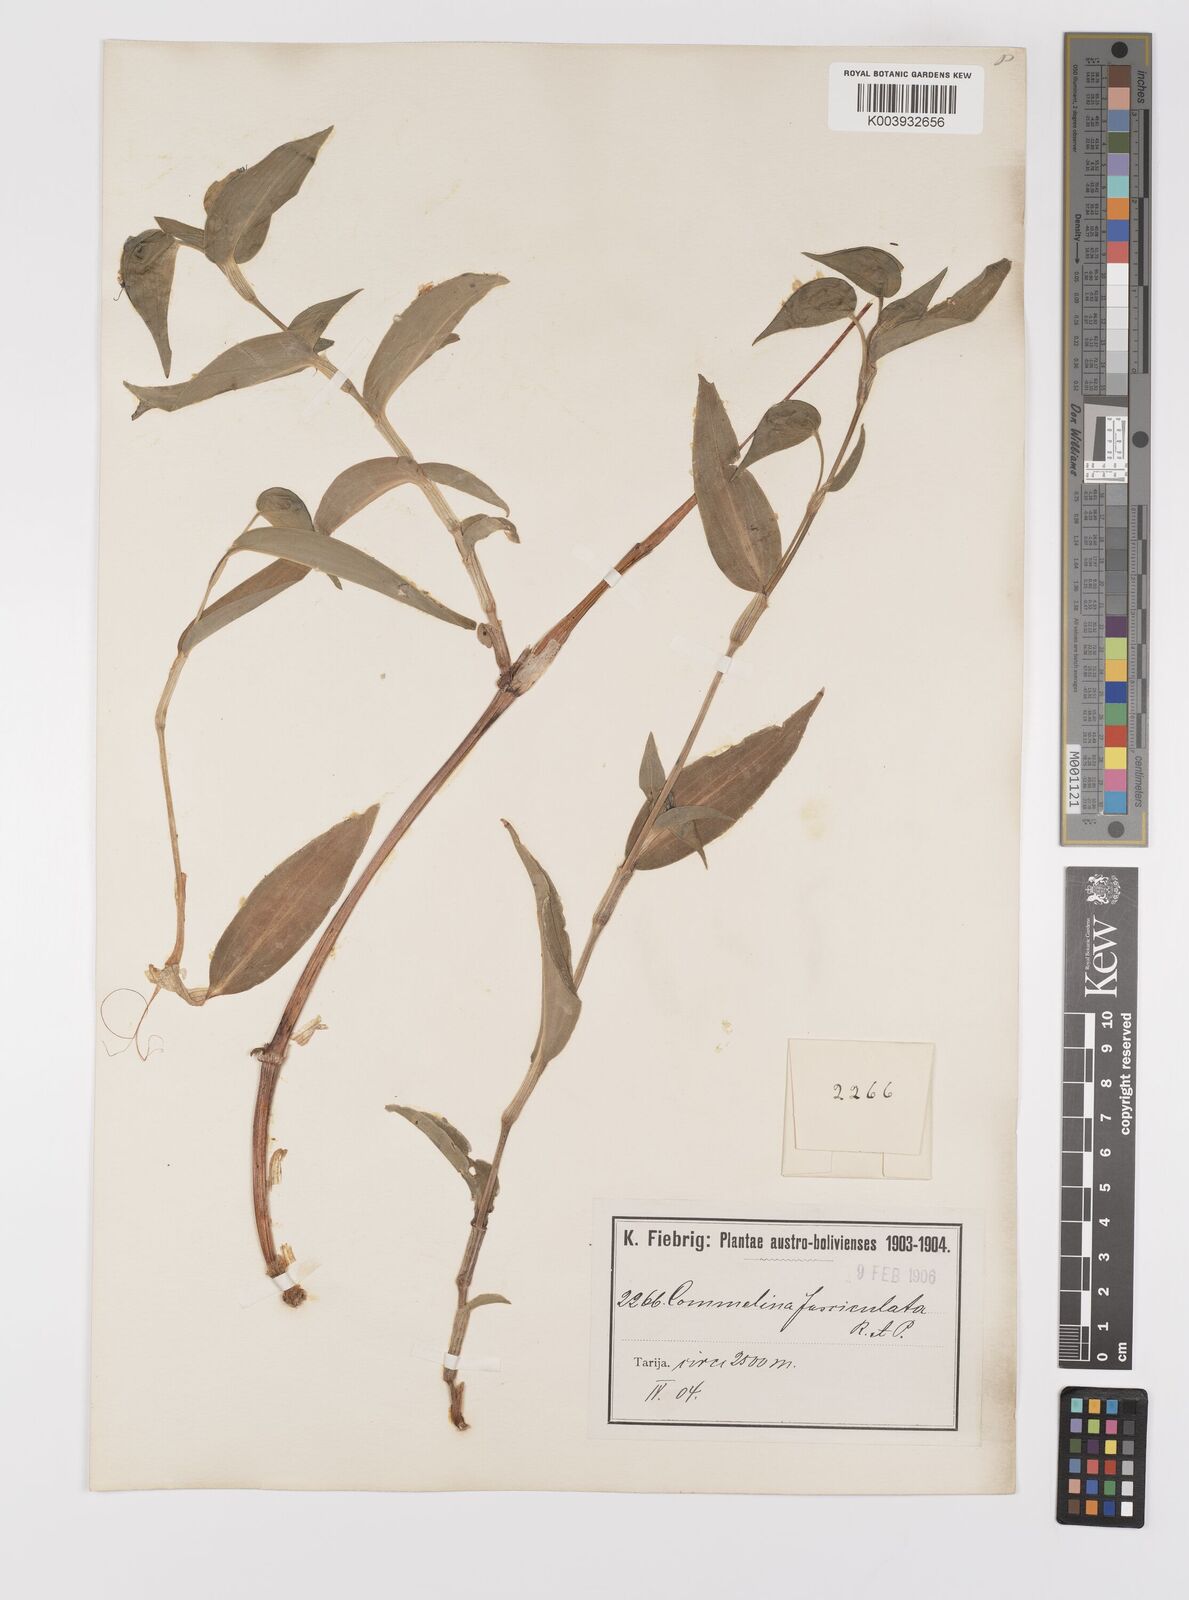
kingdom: Plantae
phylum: Tracheophyta
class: Liliopsida
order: Commelinales
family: Commelinaceae
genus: Commelina
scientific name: Commelina tuberosa
